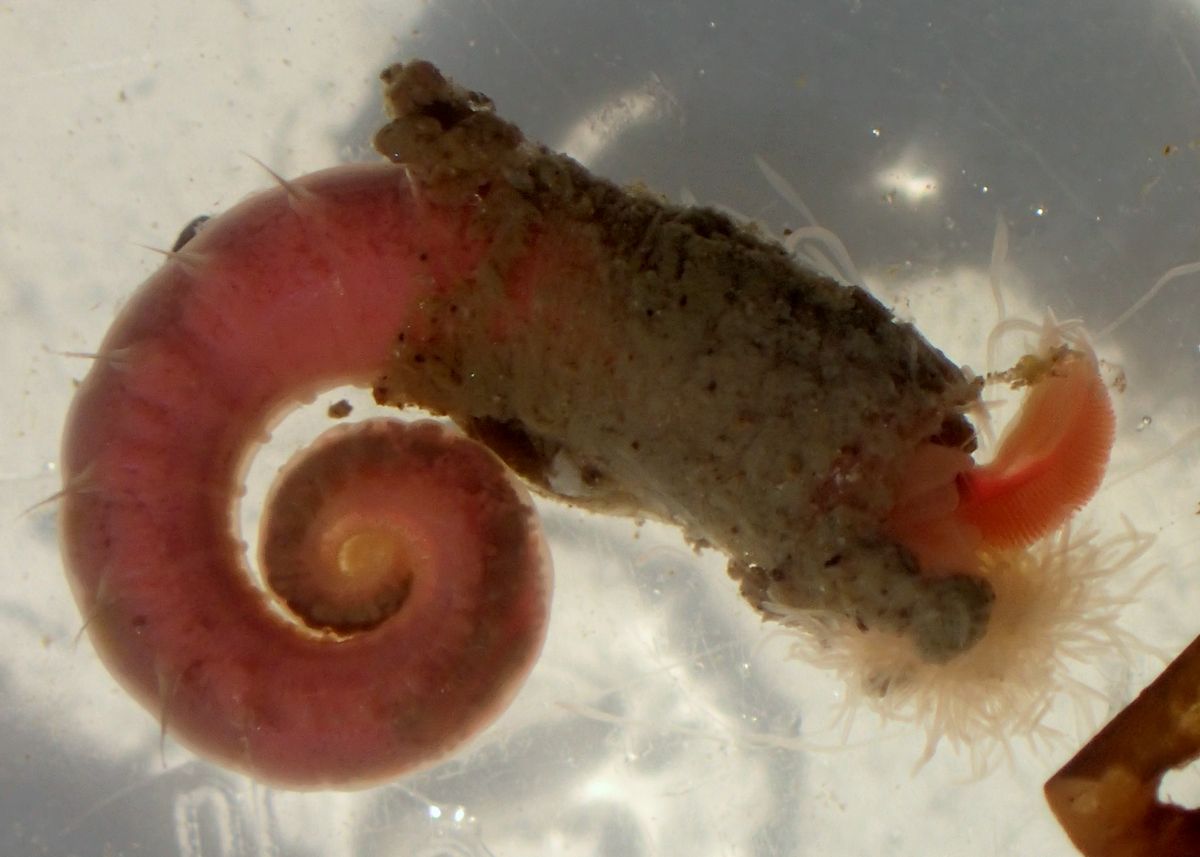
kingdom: Animalia
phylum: Annelida
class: Polychaeta
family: Trichobranchidae
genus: Terebellides
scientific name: Terebellides stroemii
